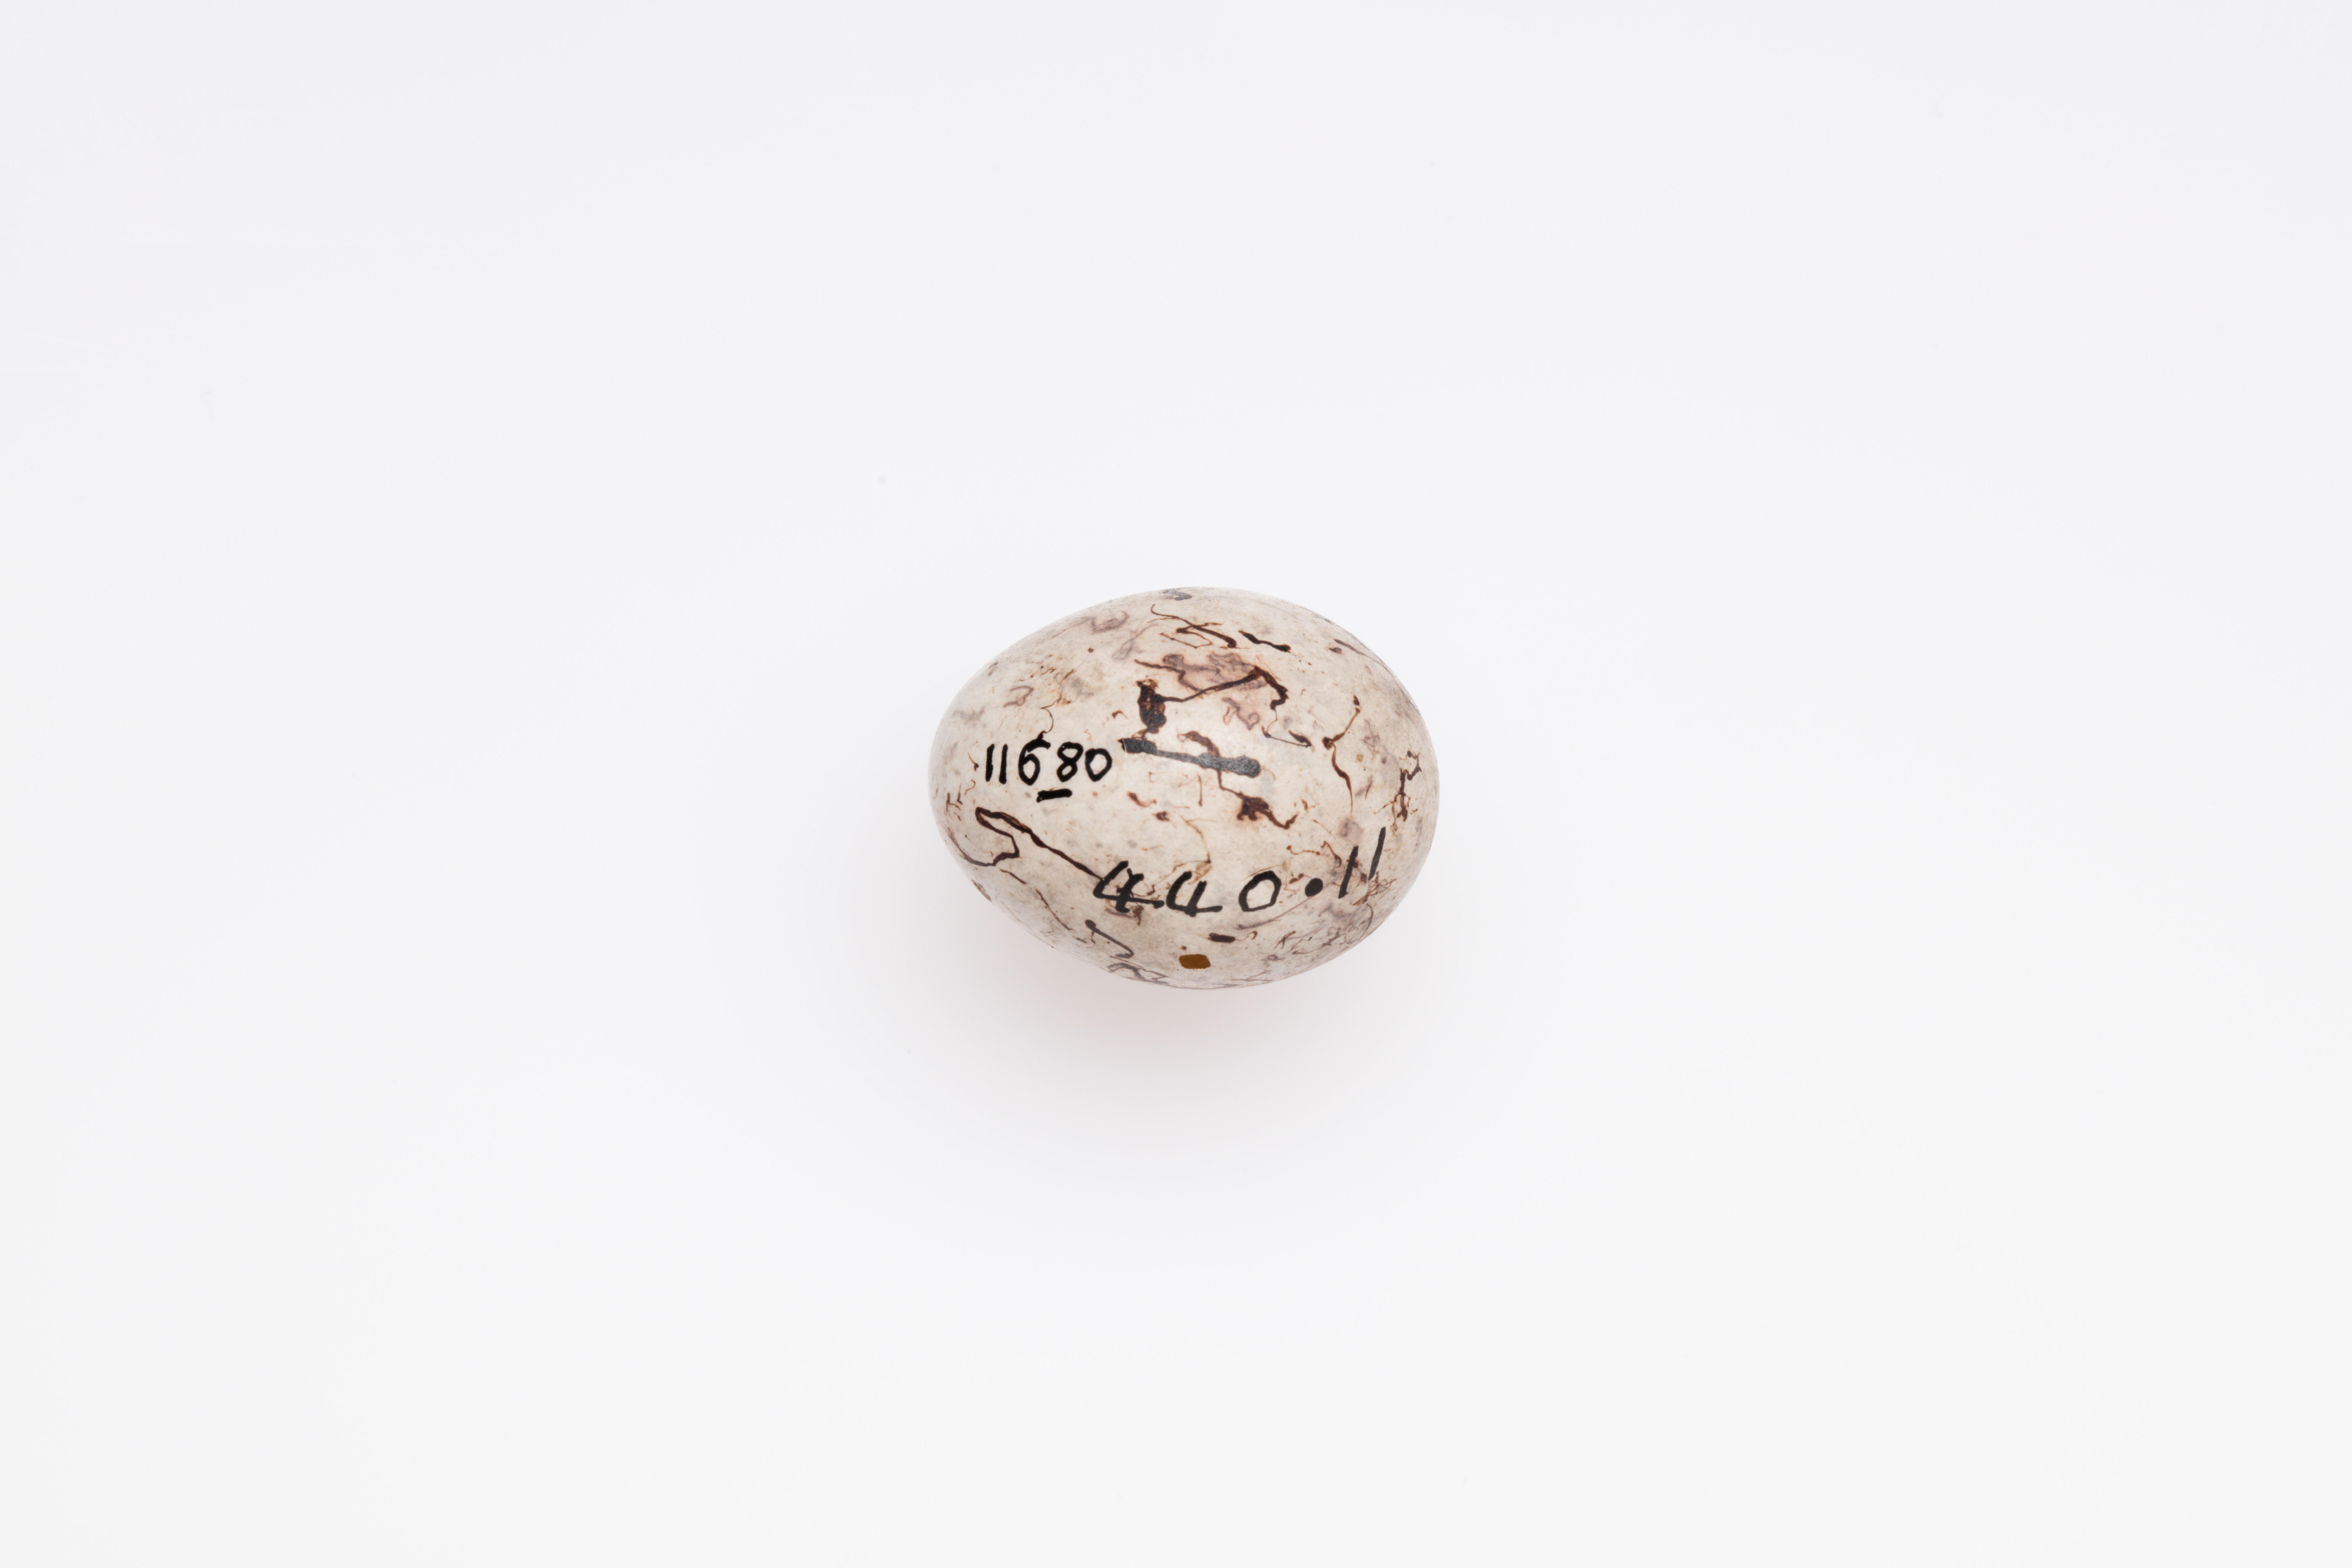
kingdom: Animalia
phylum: Chordata
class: Aves
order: Passeriformes
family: Emberizidae
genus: Emberiza
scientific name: Emberiza citrinella
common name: Yellowhammer
